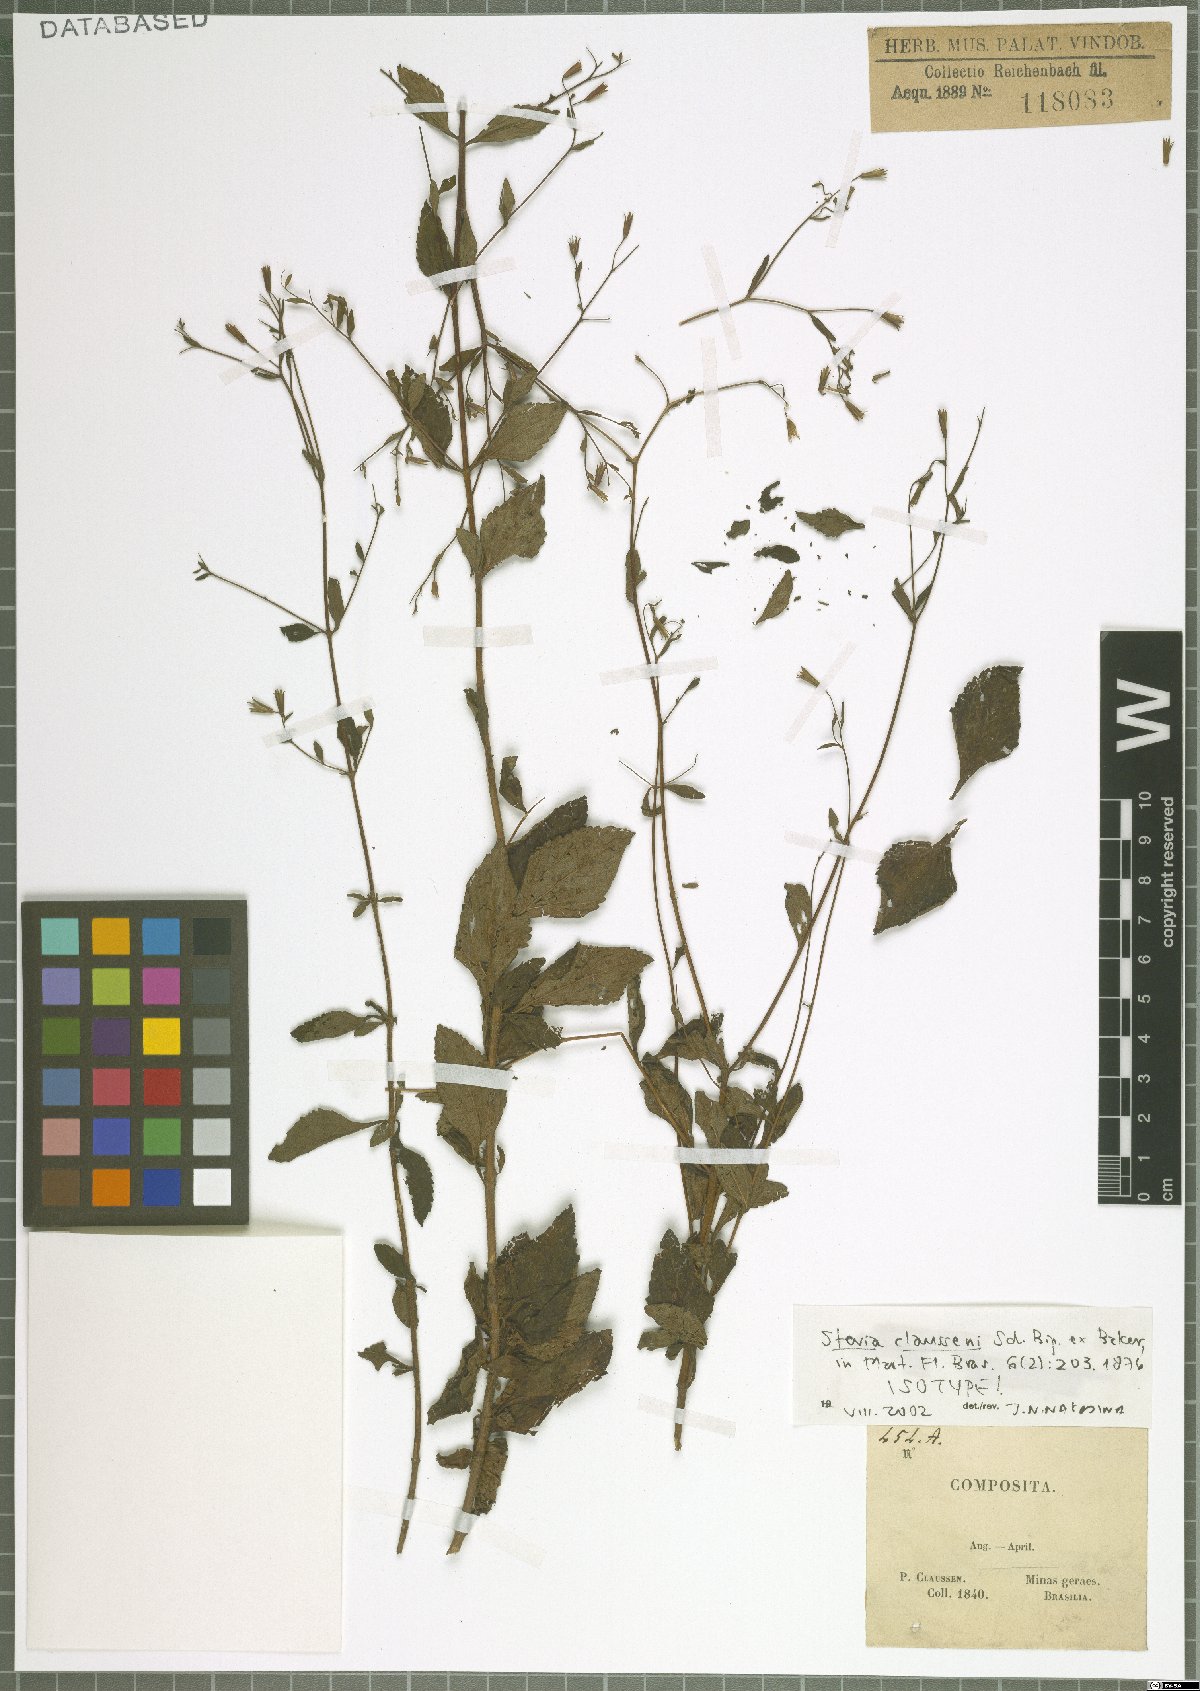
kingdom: Plantae
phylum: Tracheophyta
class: Magnoliopsida
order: Asterales
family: Asteraceae
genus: Stevia
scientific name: Stevia claussenii
